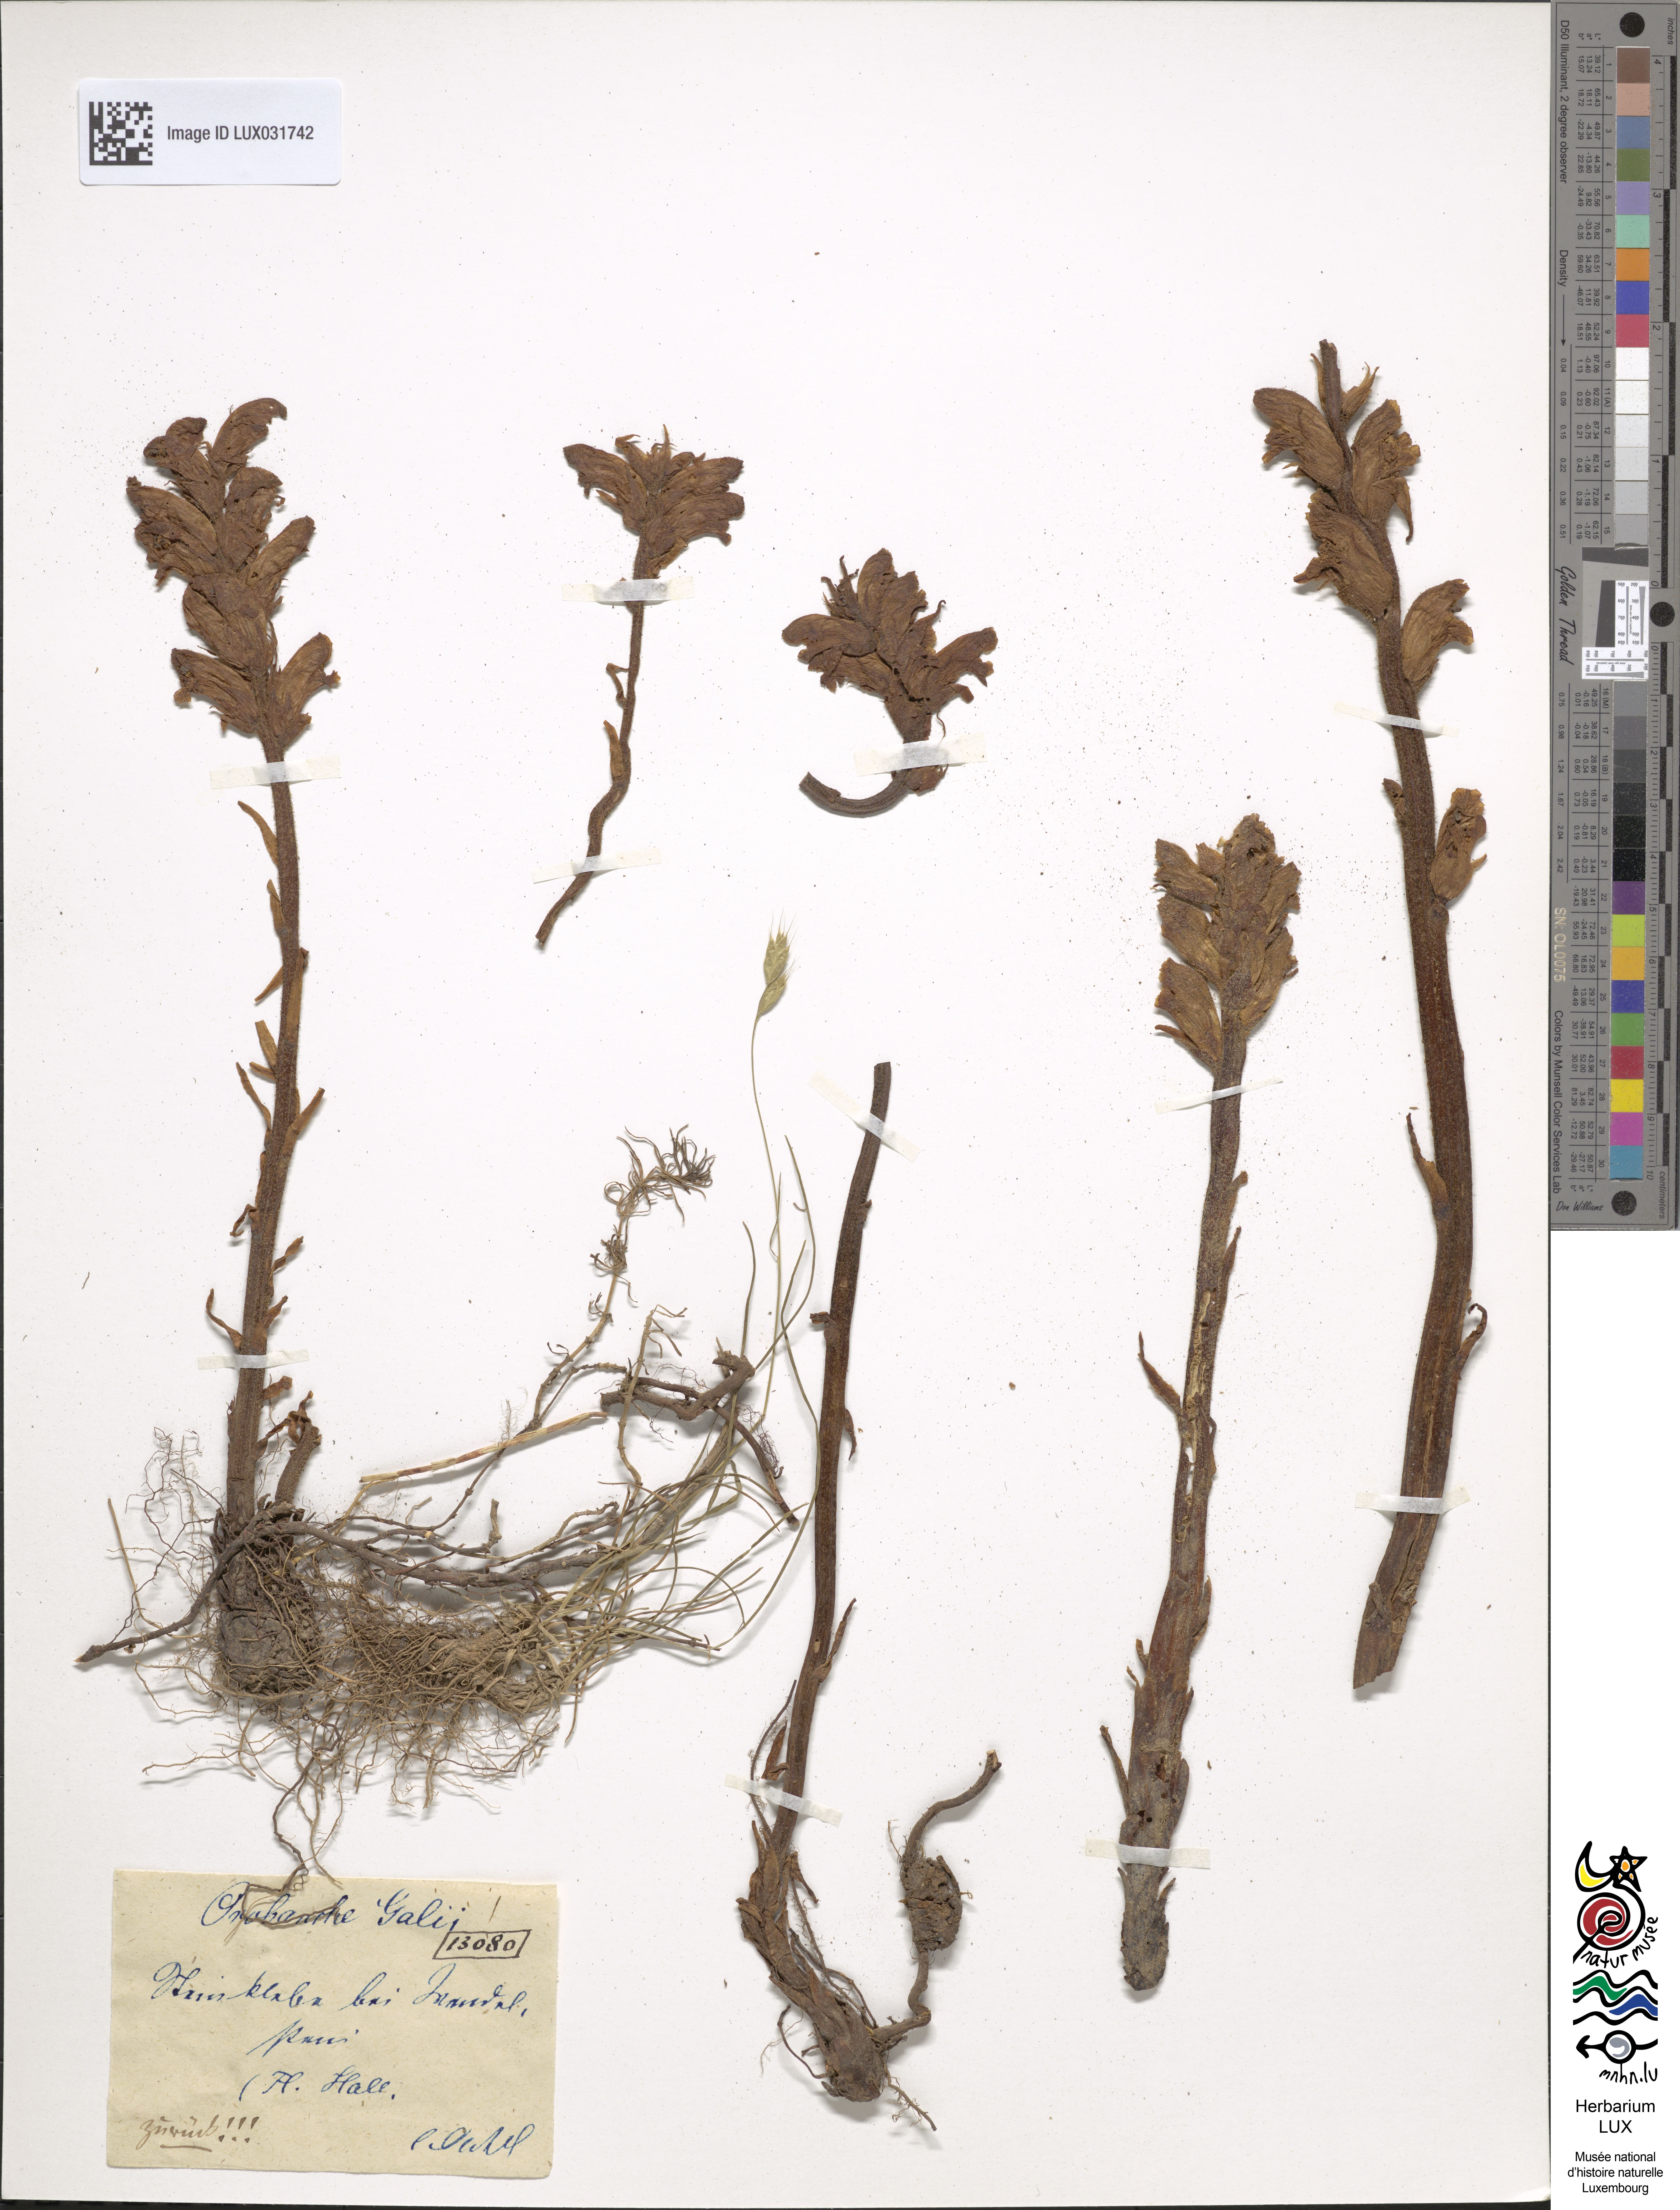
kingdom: Plantae
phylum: Tracheophyta
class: Magnoliopsida
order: Lamiales
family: Orobanchaceae
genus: Orobanche
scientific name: Orobanche caryophyllacea
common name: Bedstraw broomrape
